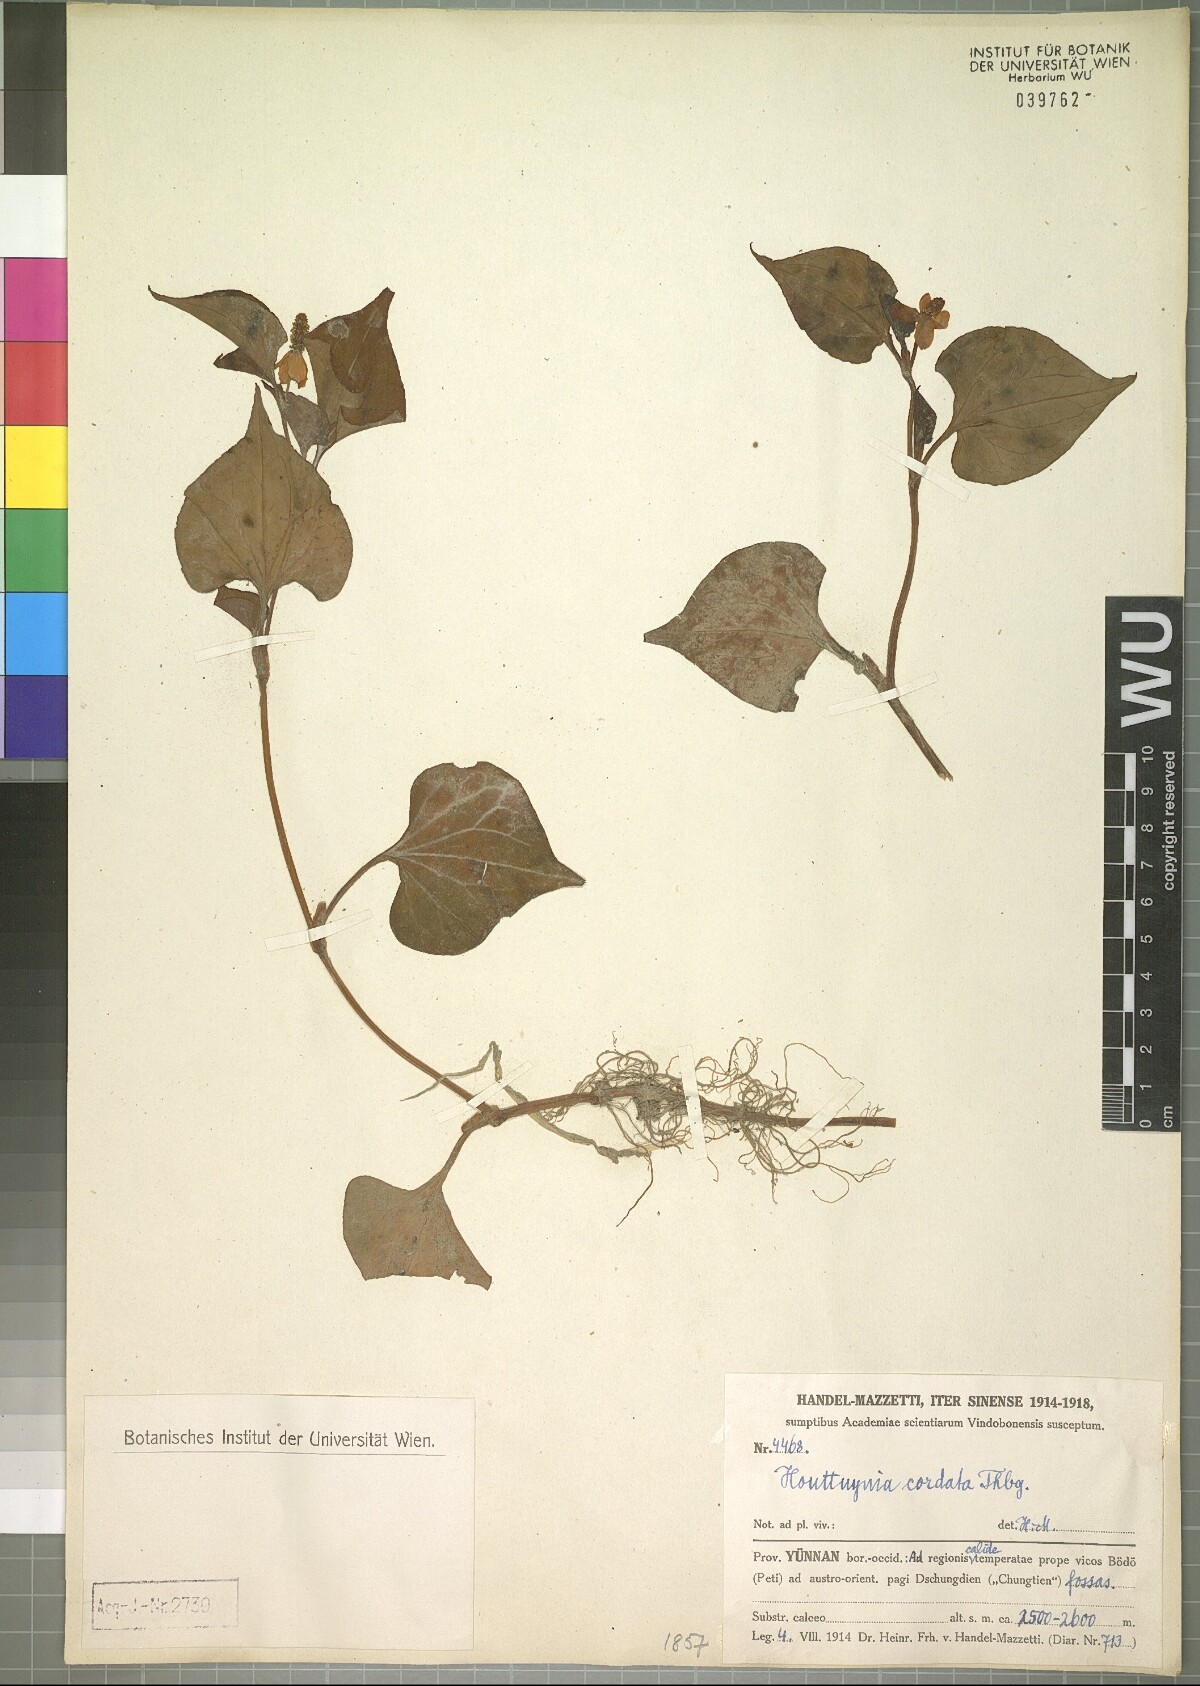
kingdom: Plantae
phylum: Tracheophyta
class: Magnoliopsida
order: Piperales
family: Saururaceae
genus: Houttuynia
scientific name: Houttuynia cordata
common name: Chameleon
